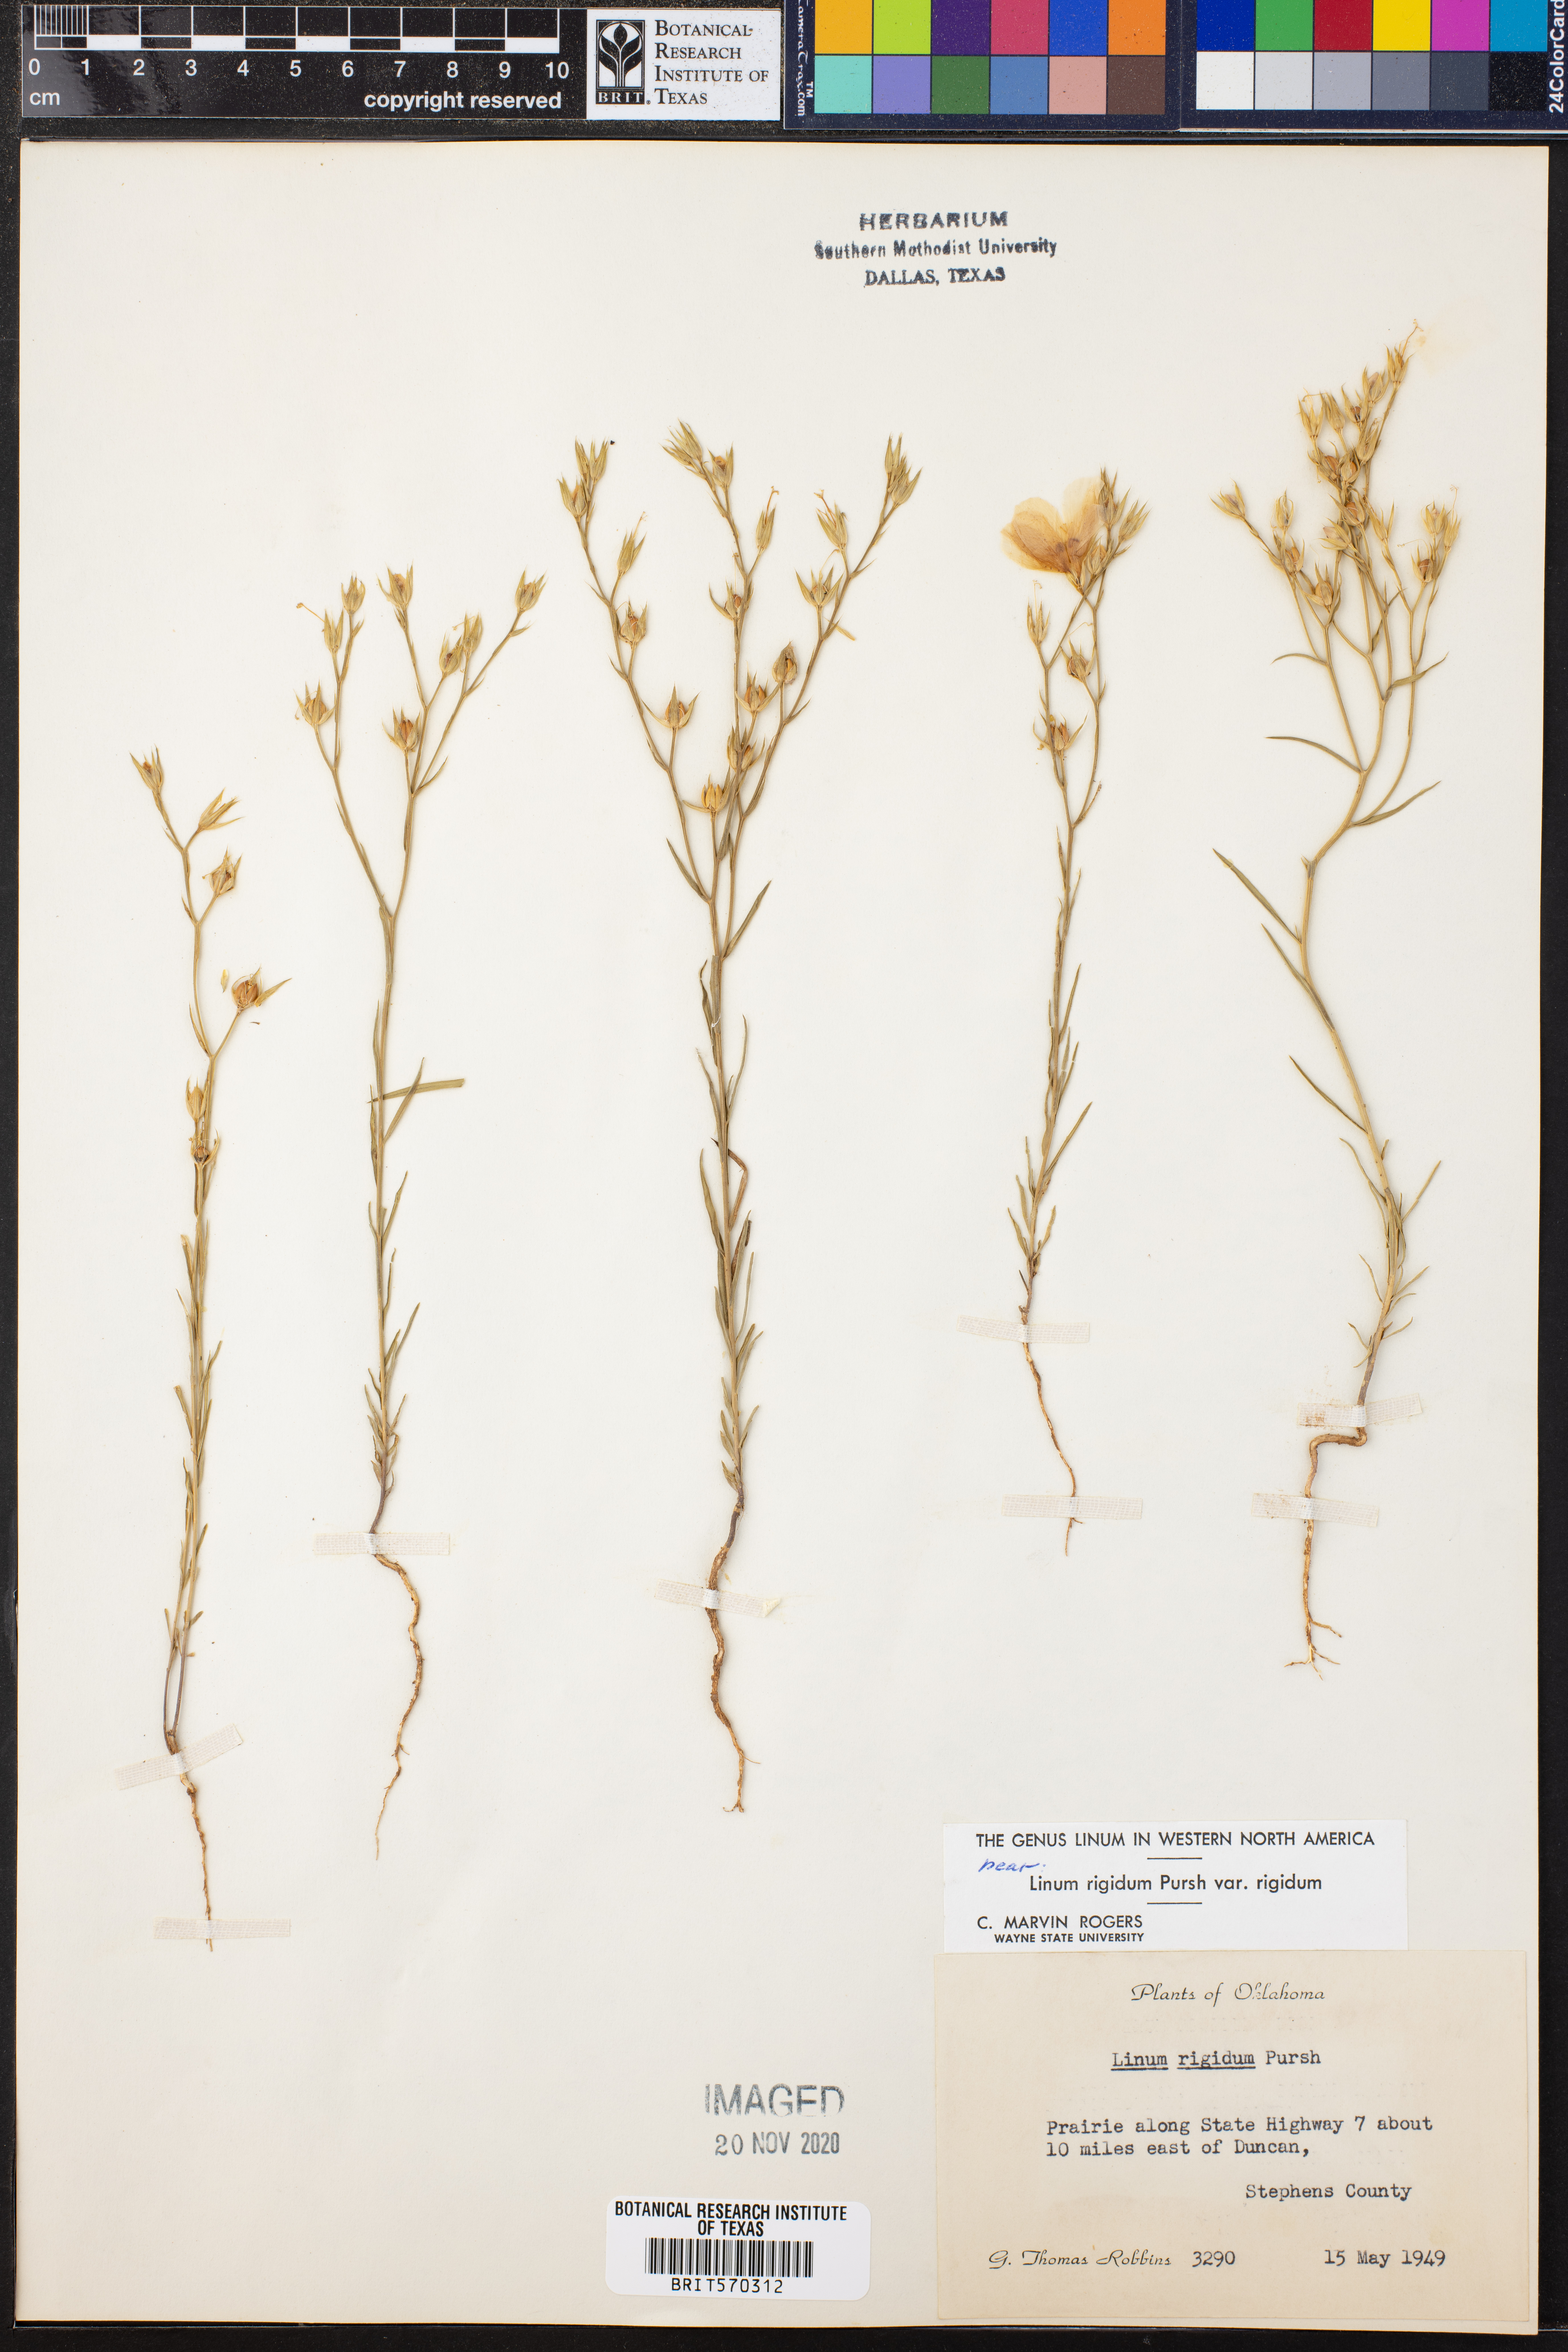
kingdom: Plantae
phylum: Tracheophyta
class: Magnoliopsida
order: Malpighiales
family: Linaceae
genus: Linum
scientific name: Linum rigidum
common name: Stiff-stem flax
